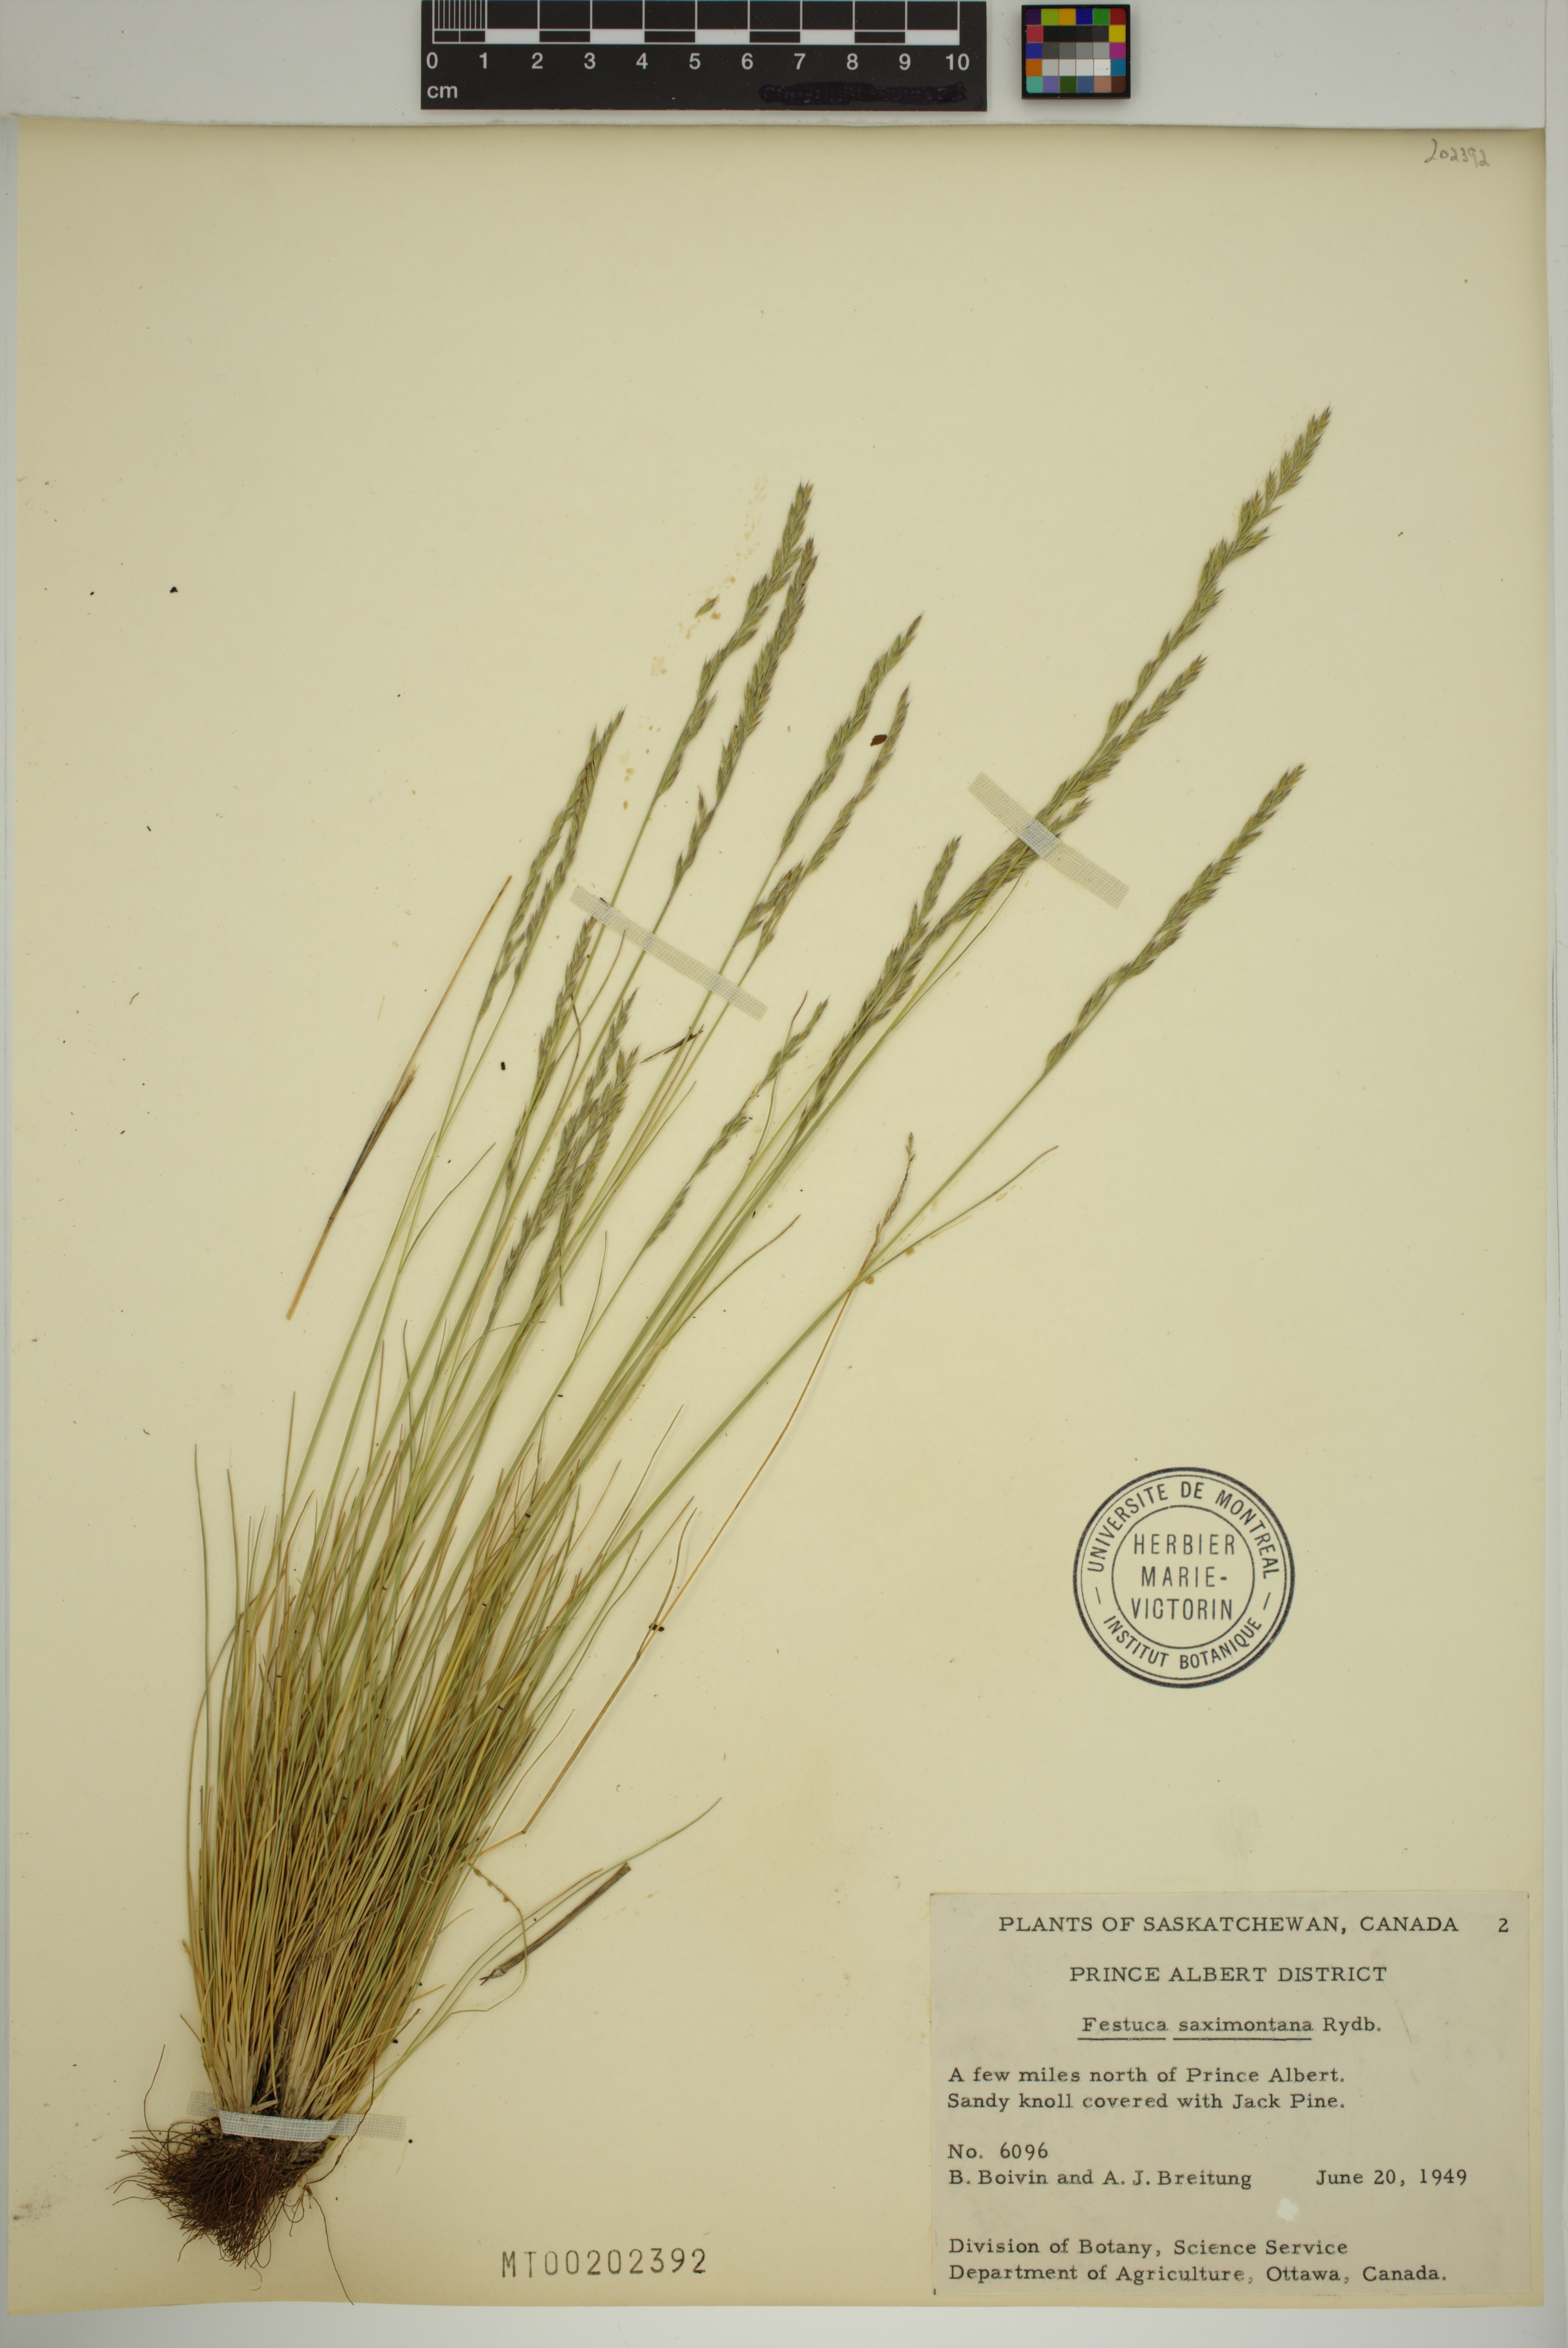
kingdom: Plantae
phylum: Tracheophyta
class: Liliopsida
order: Poales
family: Poaceae
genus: Festuca
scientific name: Festuca saximontana
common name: Mountain fescue
